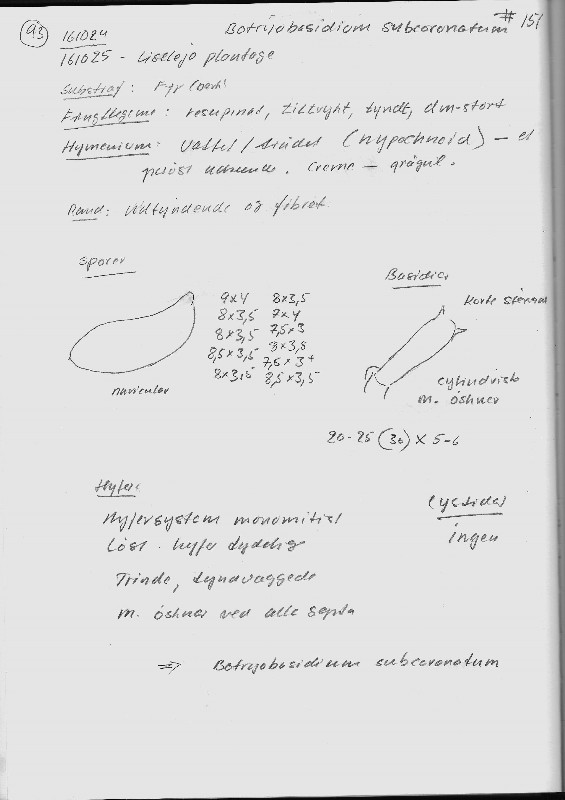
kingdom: Fungi
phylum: Basidiomycota
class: Agaricomycetes
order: Cantharellales
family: Botryobasidiaceae
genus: Botryobasidium
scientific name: Botryobasidium subcoronatum
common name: almindelig spindhinde
